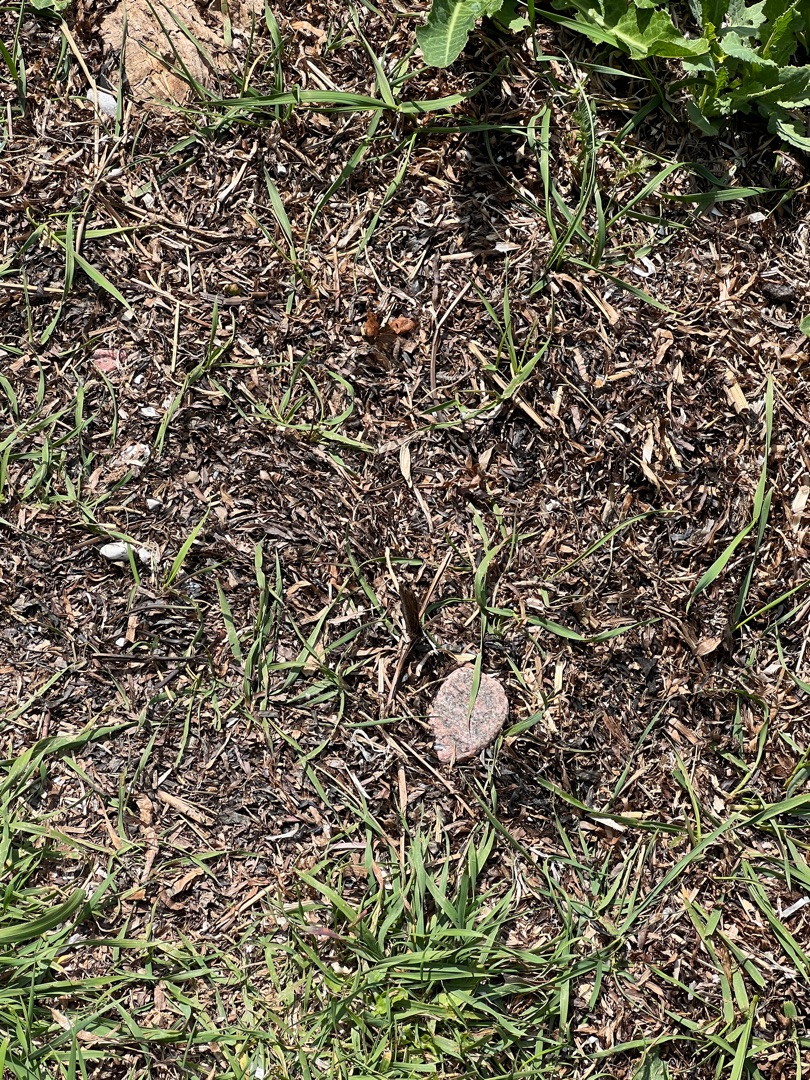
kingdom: Animalia
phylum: Arthropoda
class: Insecta
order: Lepidoptera
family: Nymphalidae
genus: Aglais
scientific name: Aglais io
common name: Dagpåfugleøje
